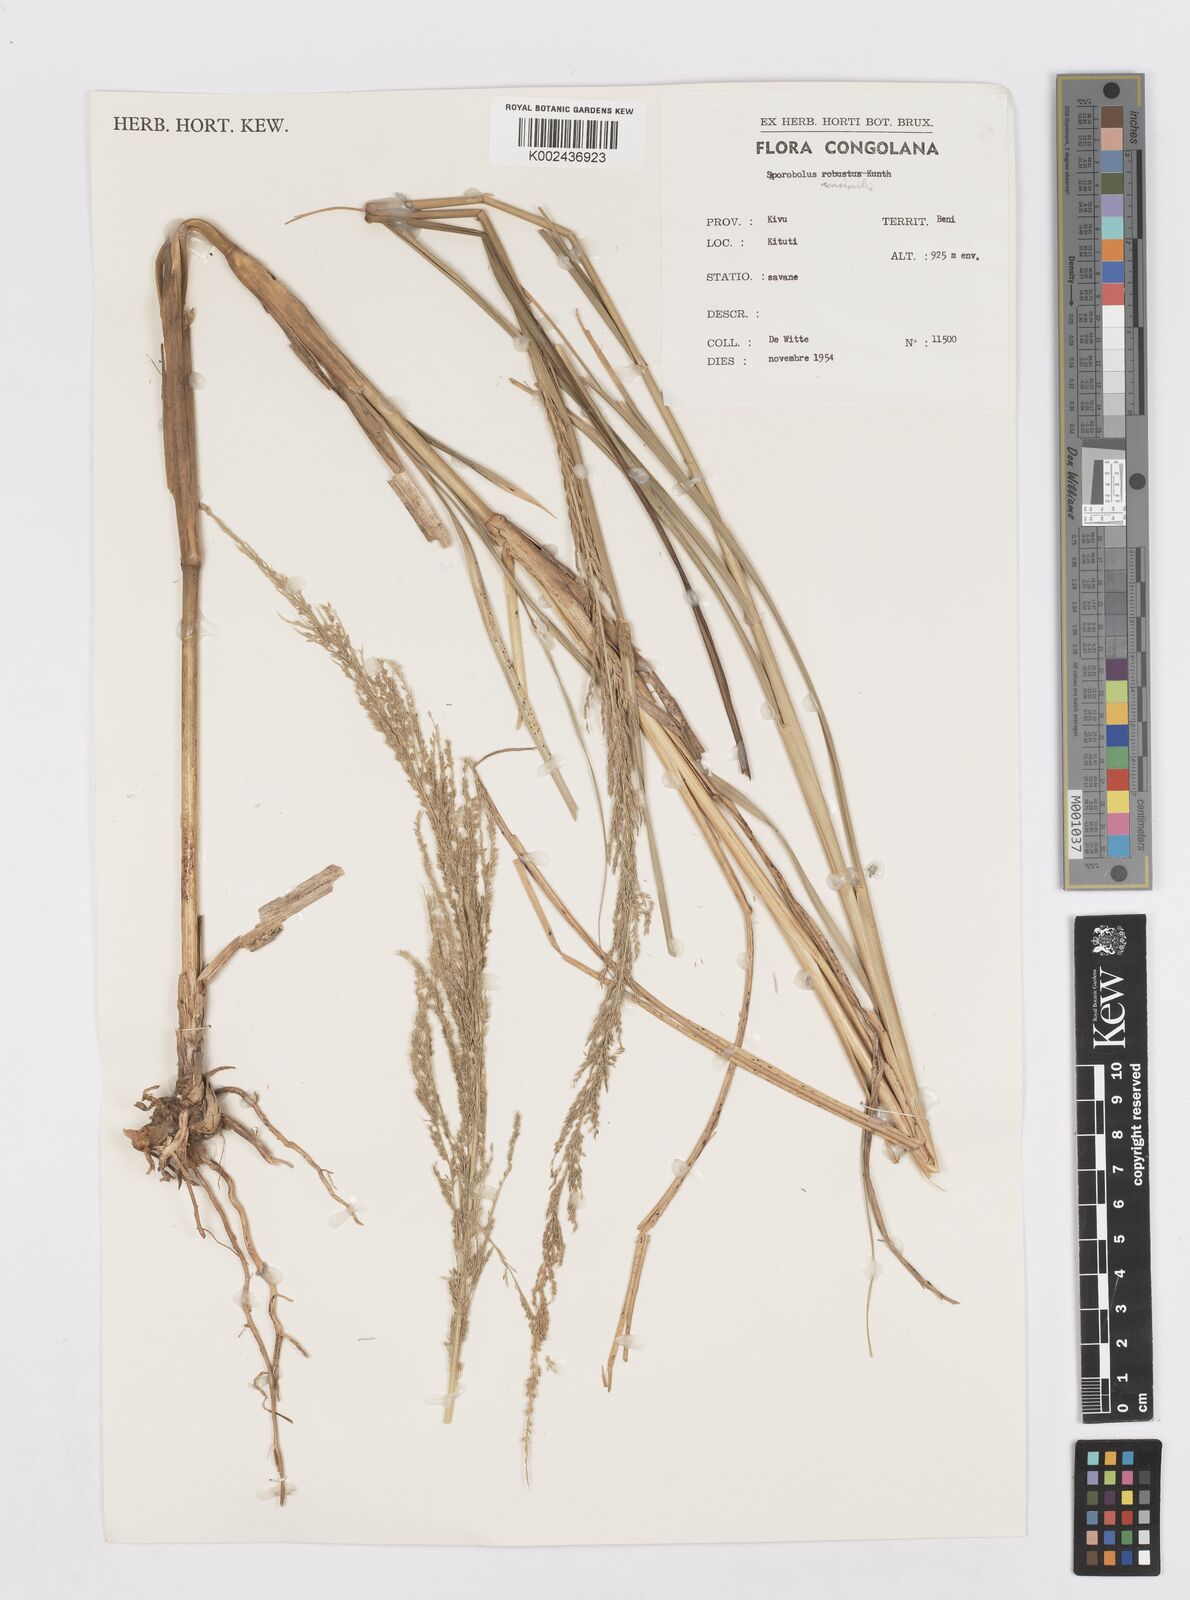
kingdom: Plantae
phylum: Tracheophyta
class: Liliopsida
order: Poales
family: Poaceae
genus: Sporobolus
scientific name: Sporobolus consimilis
